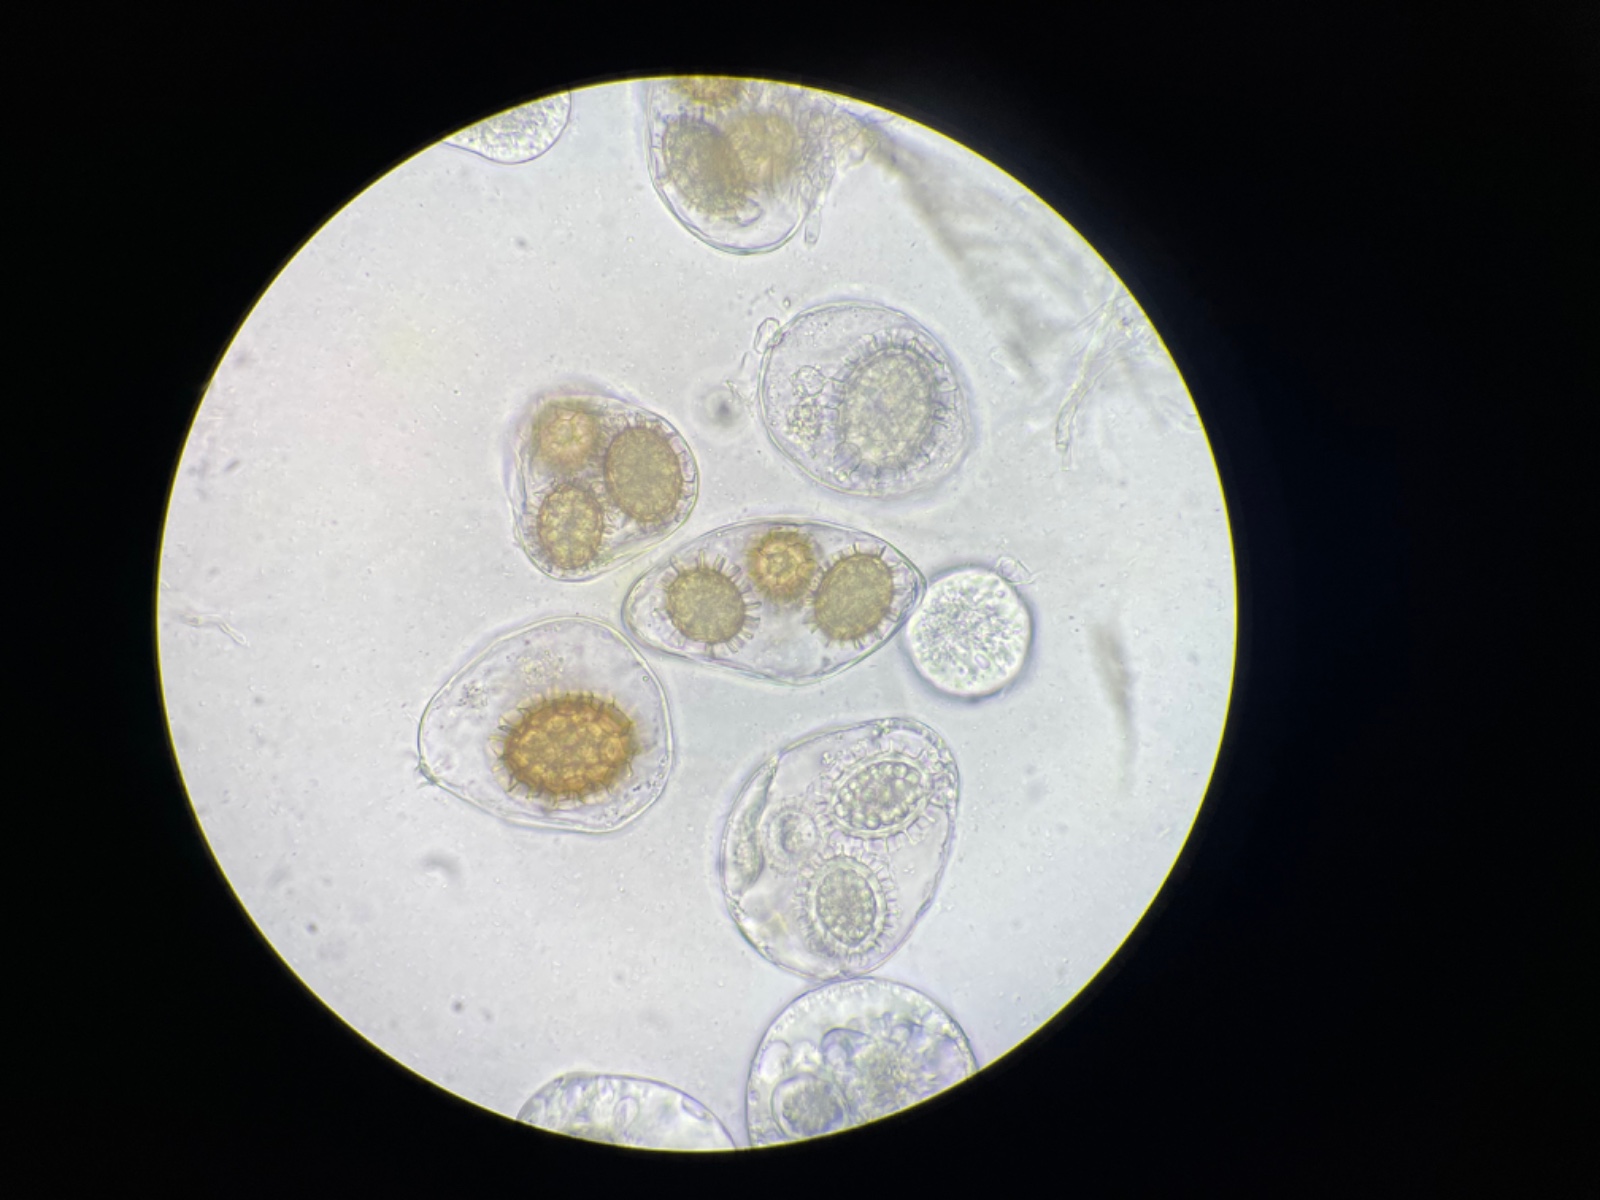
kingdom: Fungi
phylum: Ascomycota
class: Pezizomycetes
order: Pezizales
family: Tuberaceae
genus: Tuber
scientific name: Tuber
